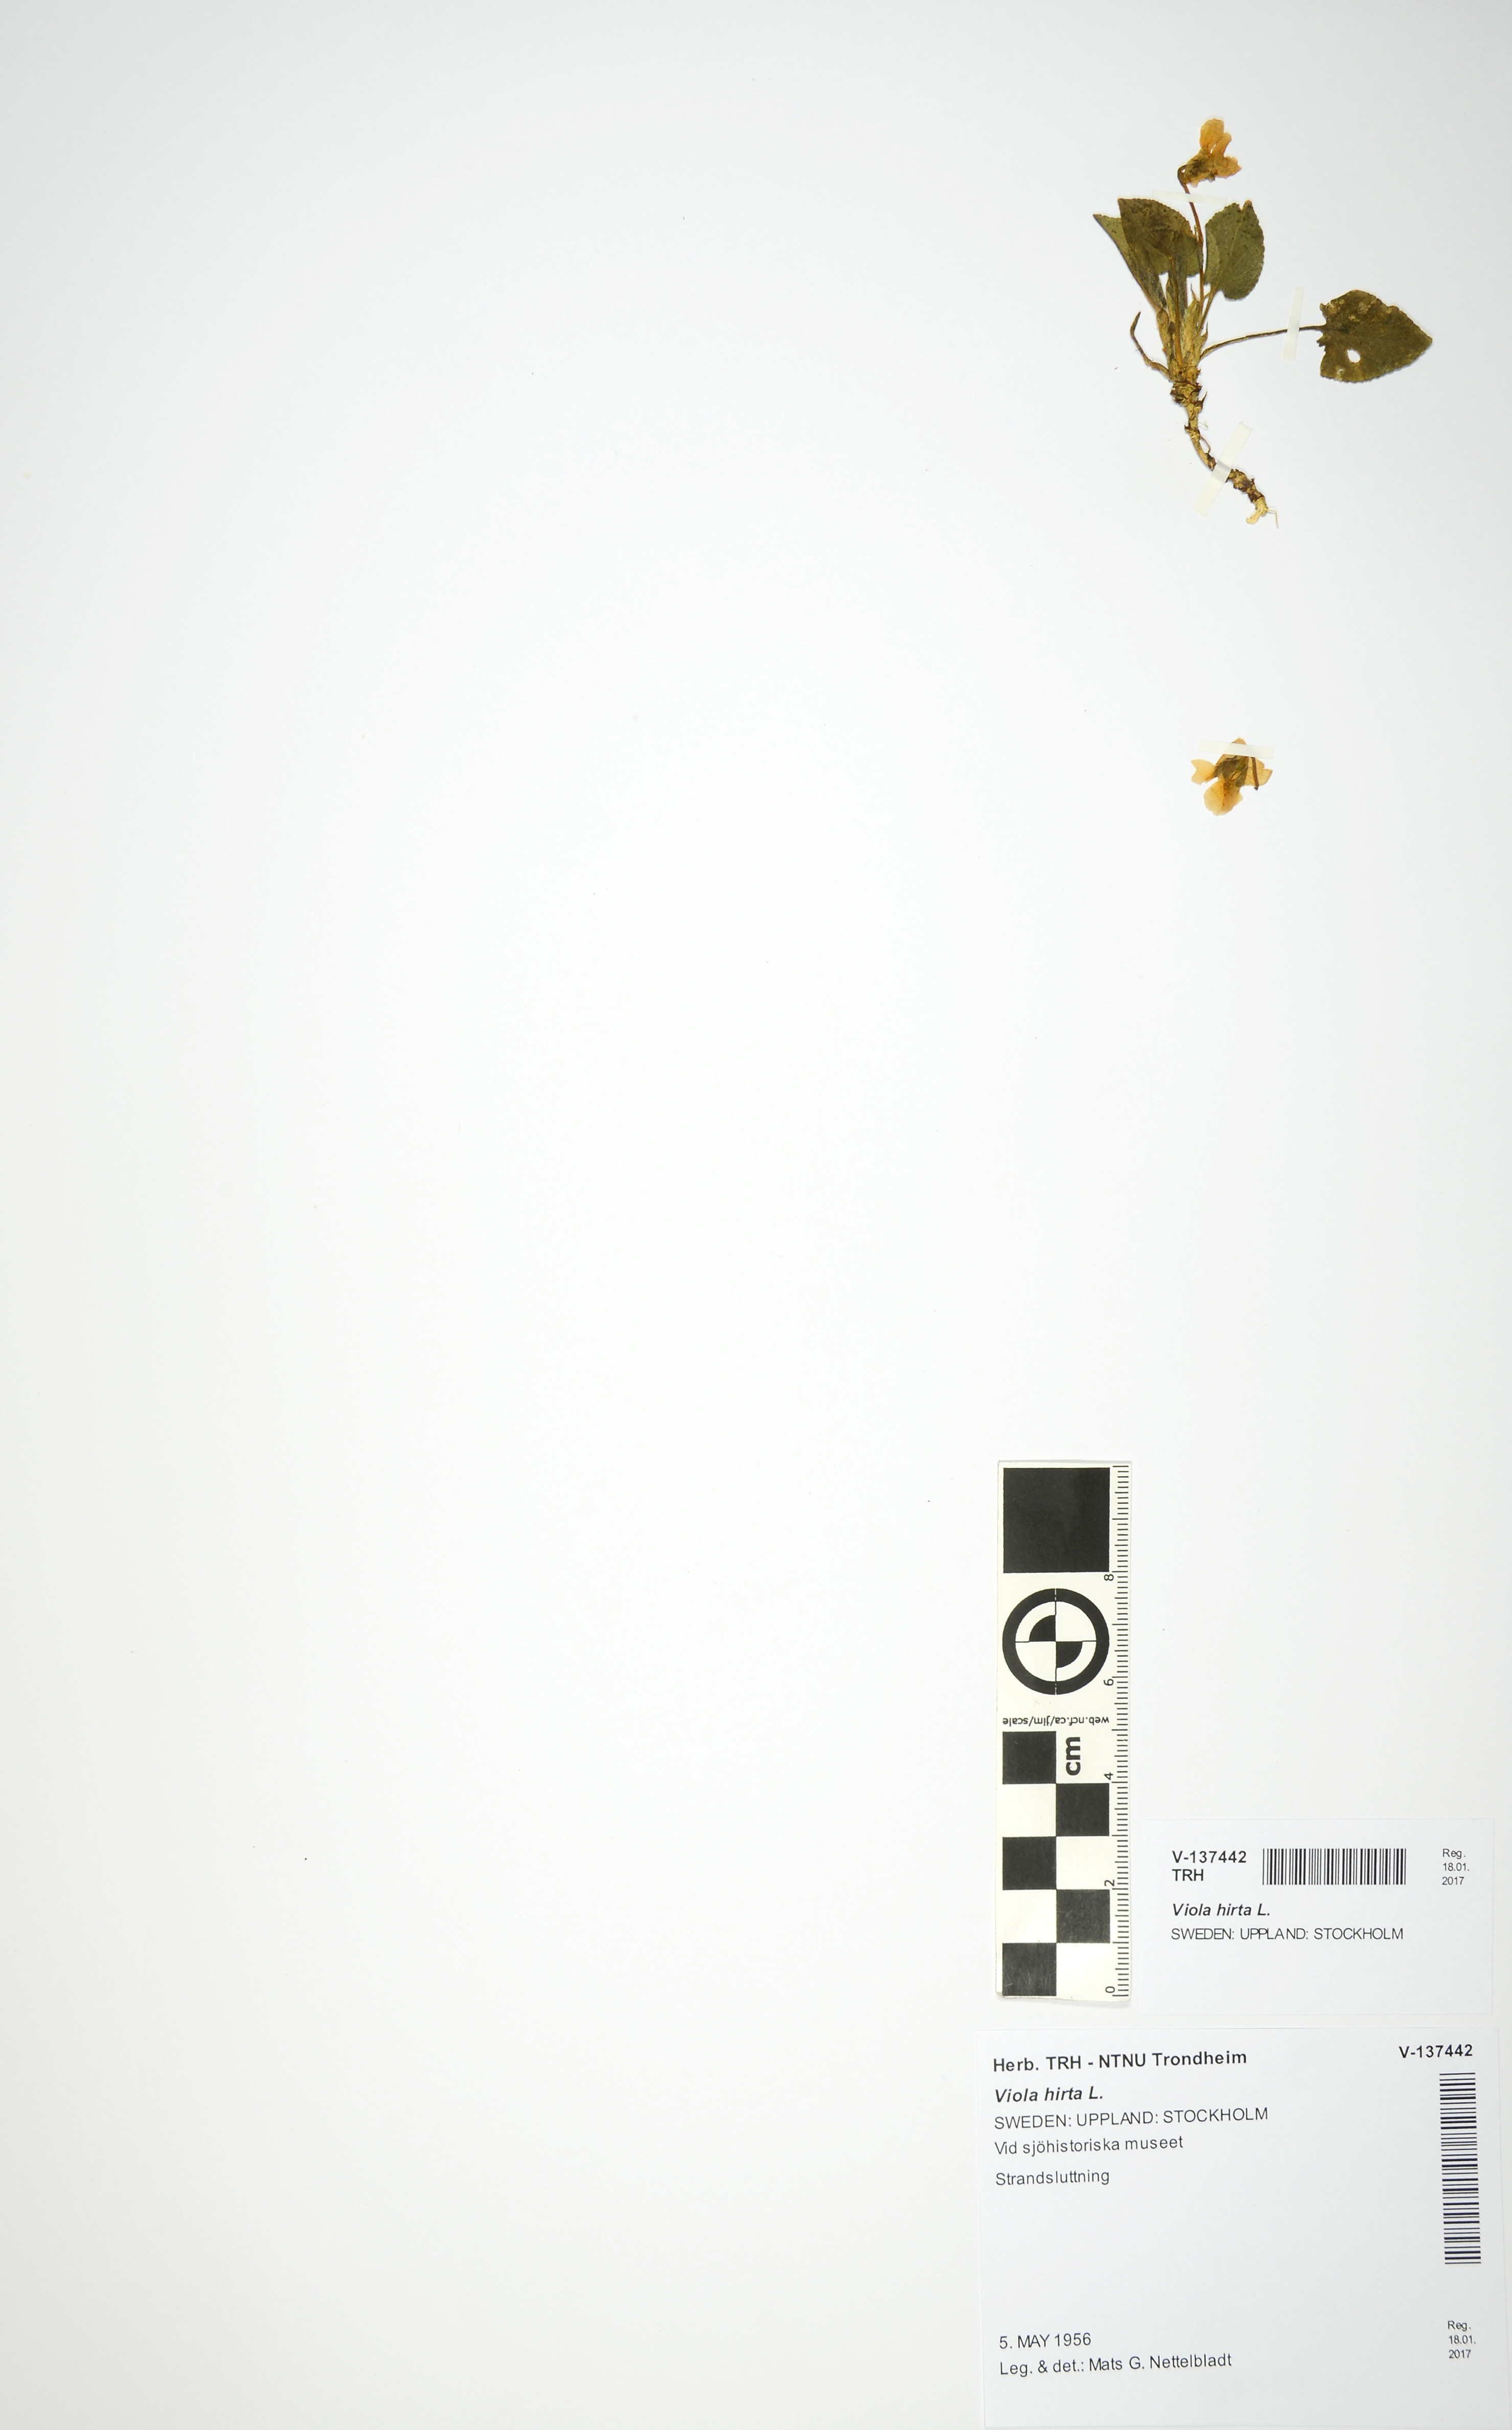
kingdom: Plantae
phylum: Tracheophyta
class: Magnoliopsida
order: Malpighiales
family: Violaceae
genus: Viola
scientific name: Viola hirta
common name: Hairy violet
